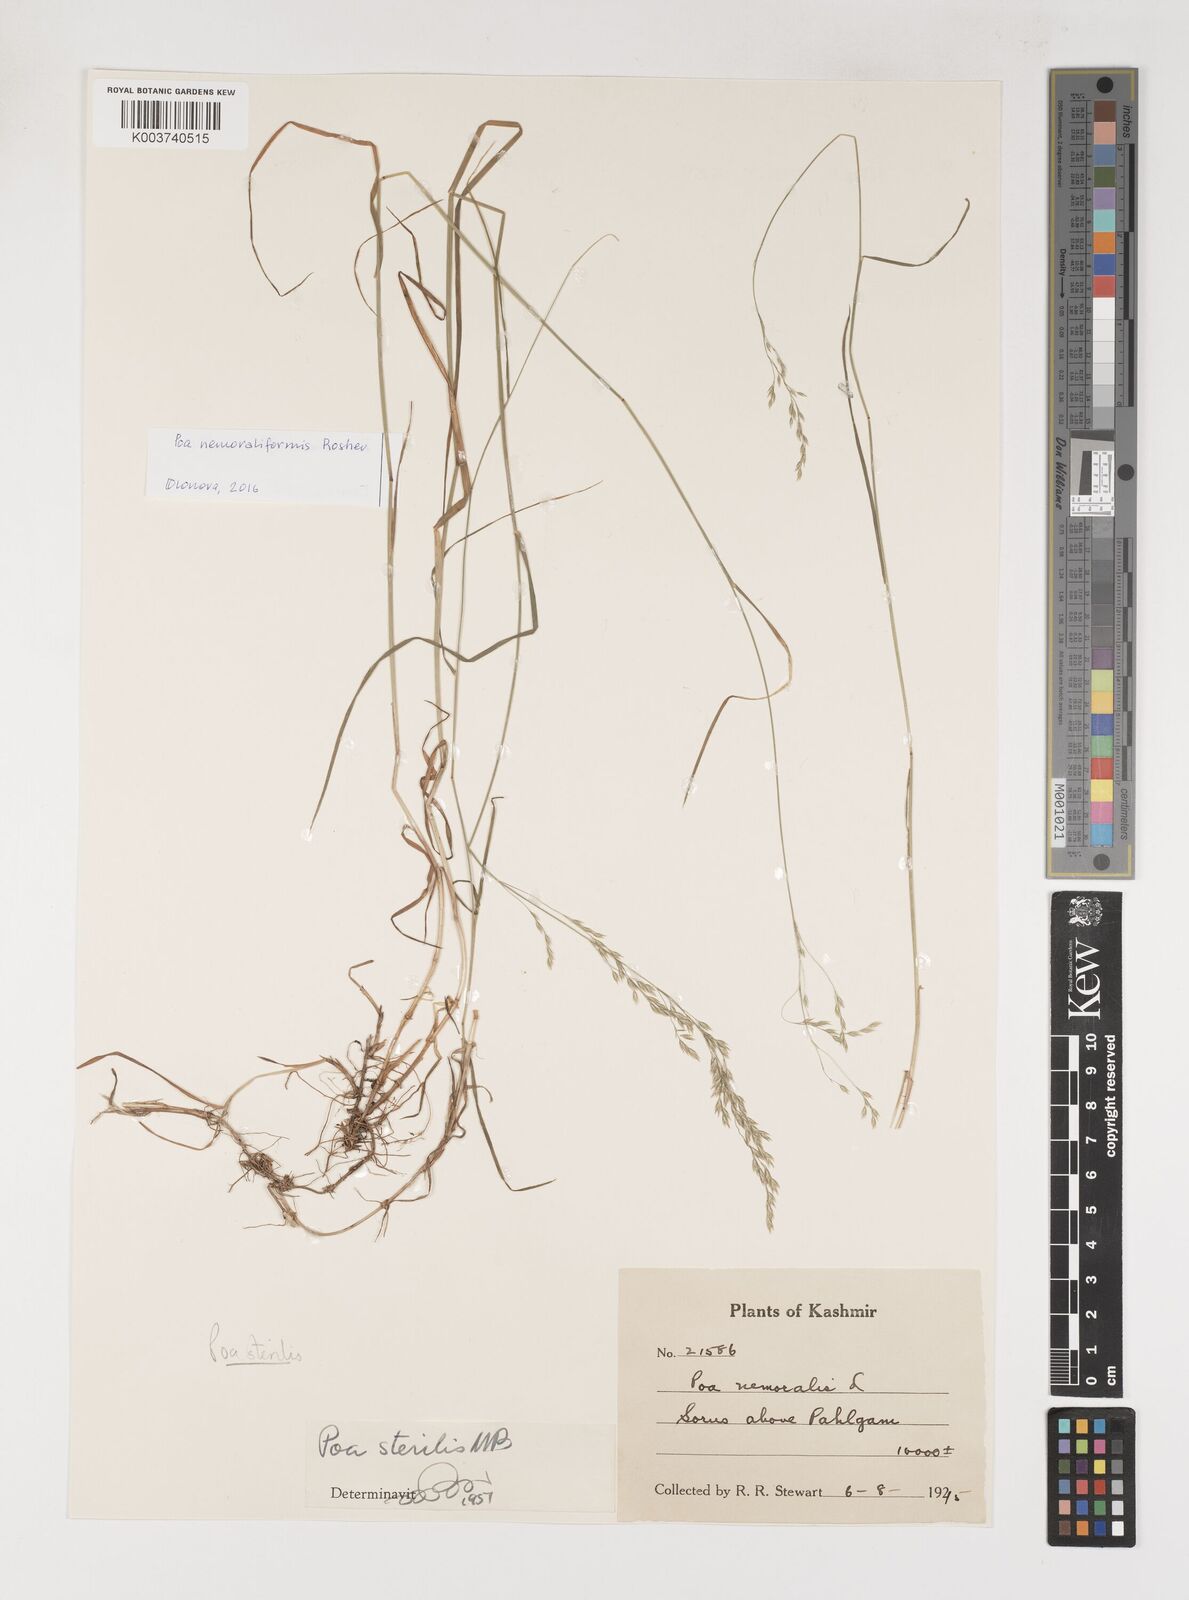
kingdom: Plantae
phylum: Tracheophyta
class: Liliopsida
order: Poales
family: Poaceae
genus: Poa
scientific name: Poa sterilis
